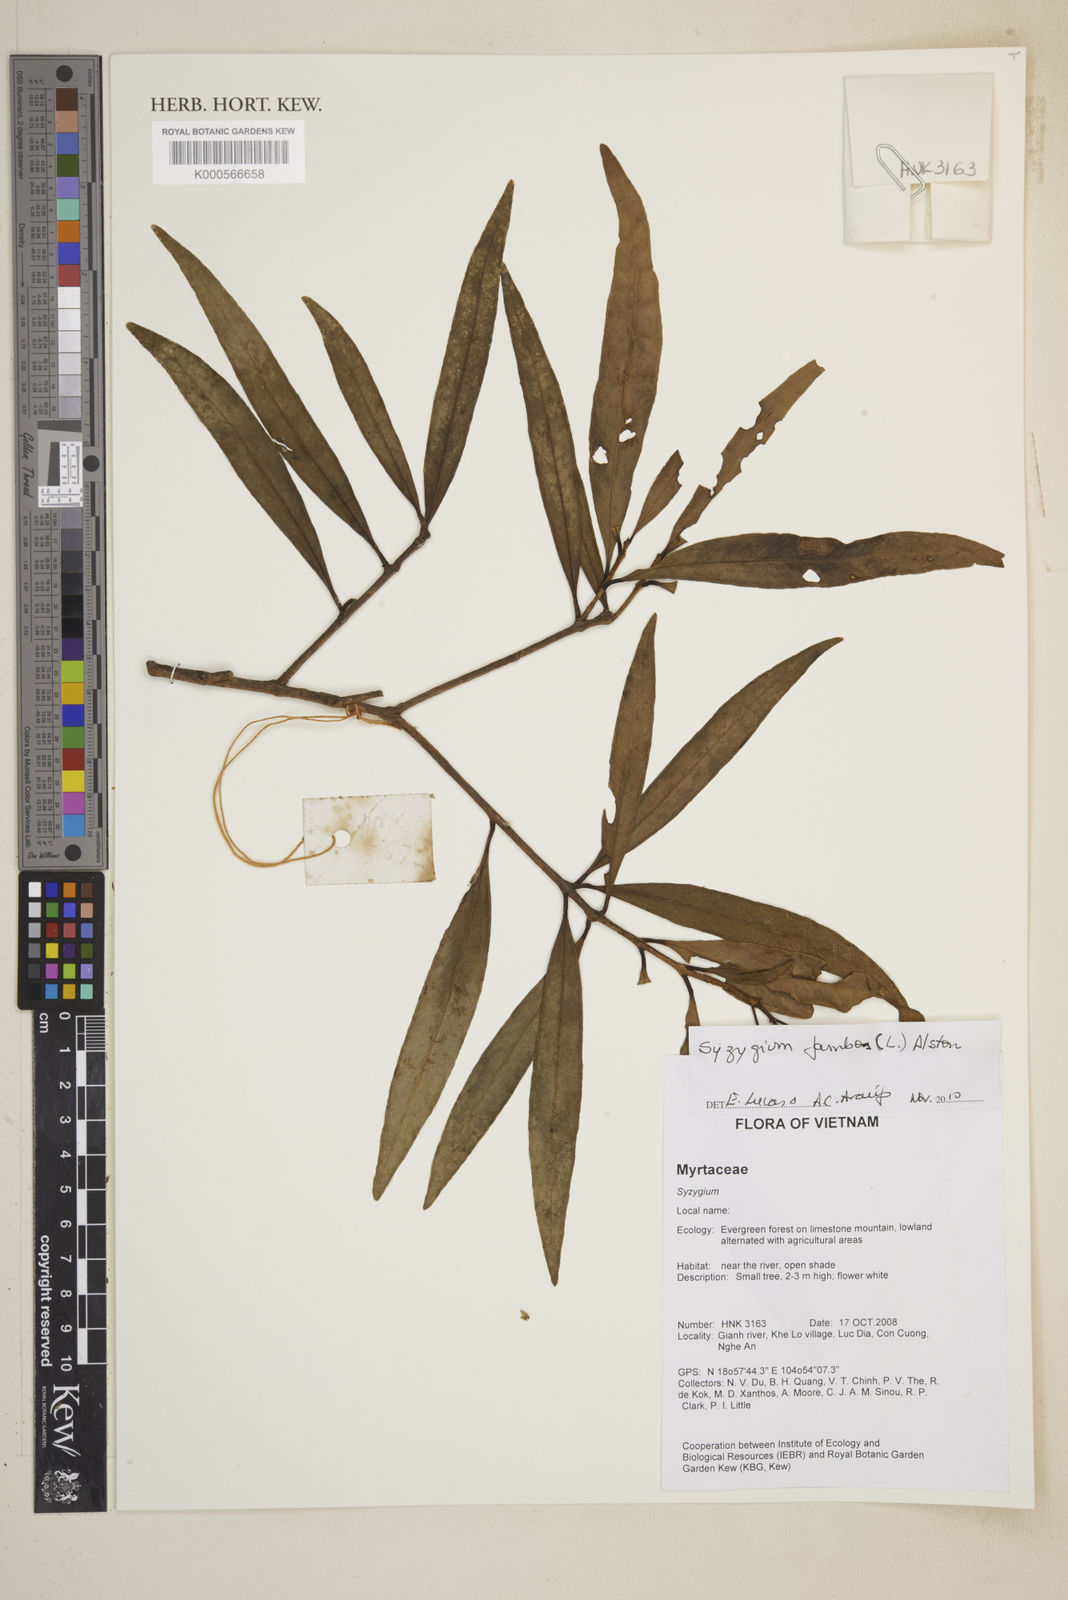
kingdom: Plantae
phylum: Tracheophyta
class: Magnoliopsida
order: Myrtales
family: Myrtaceae
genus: Syzygium
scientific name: Syzygium jambos
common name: Malabar plum
